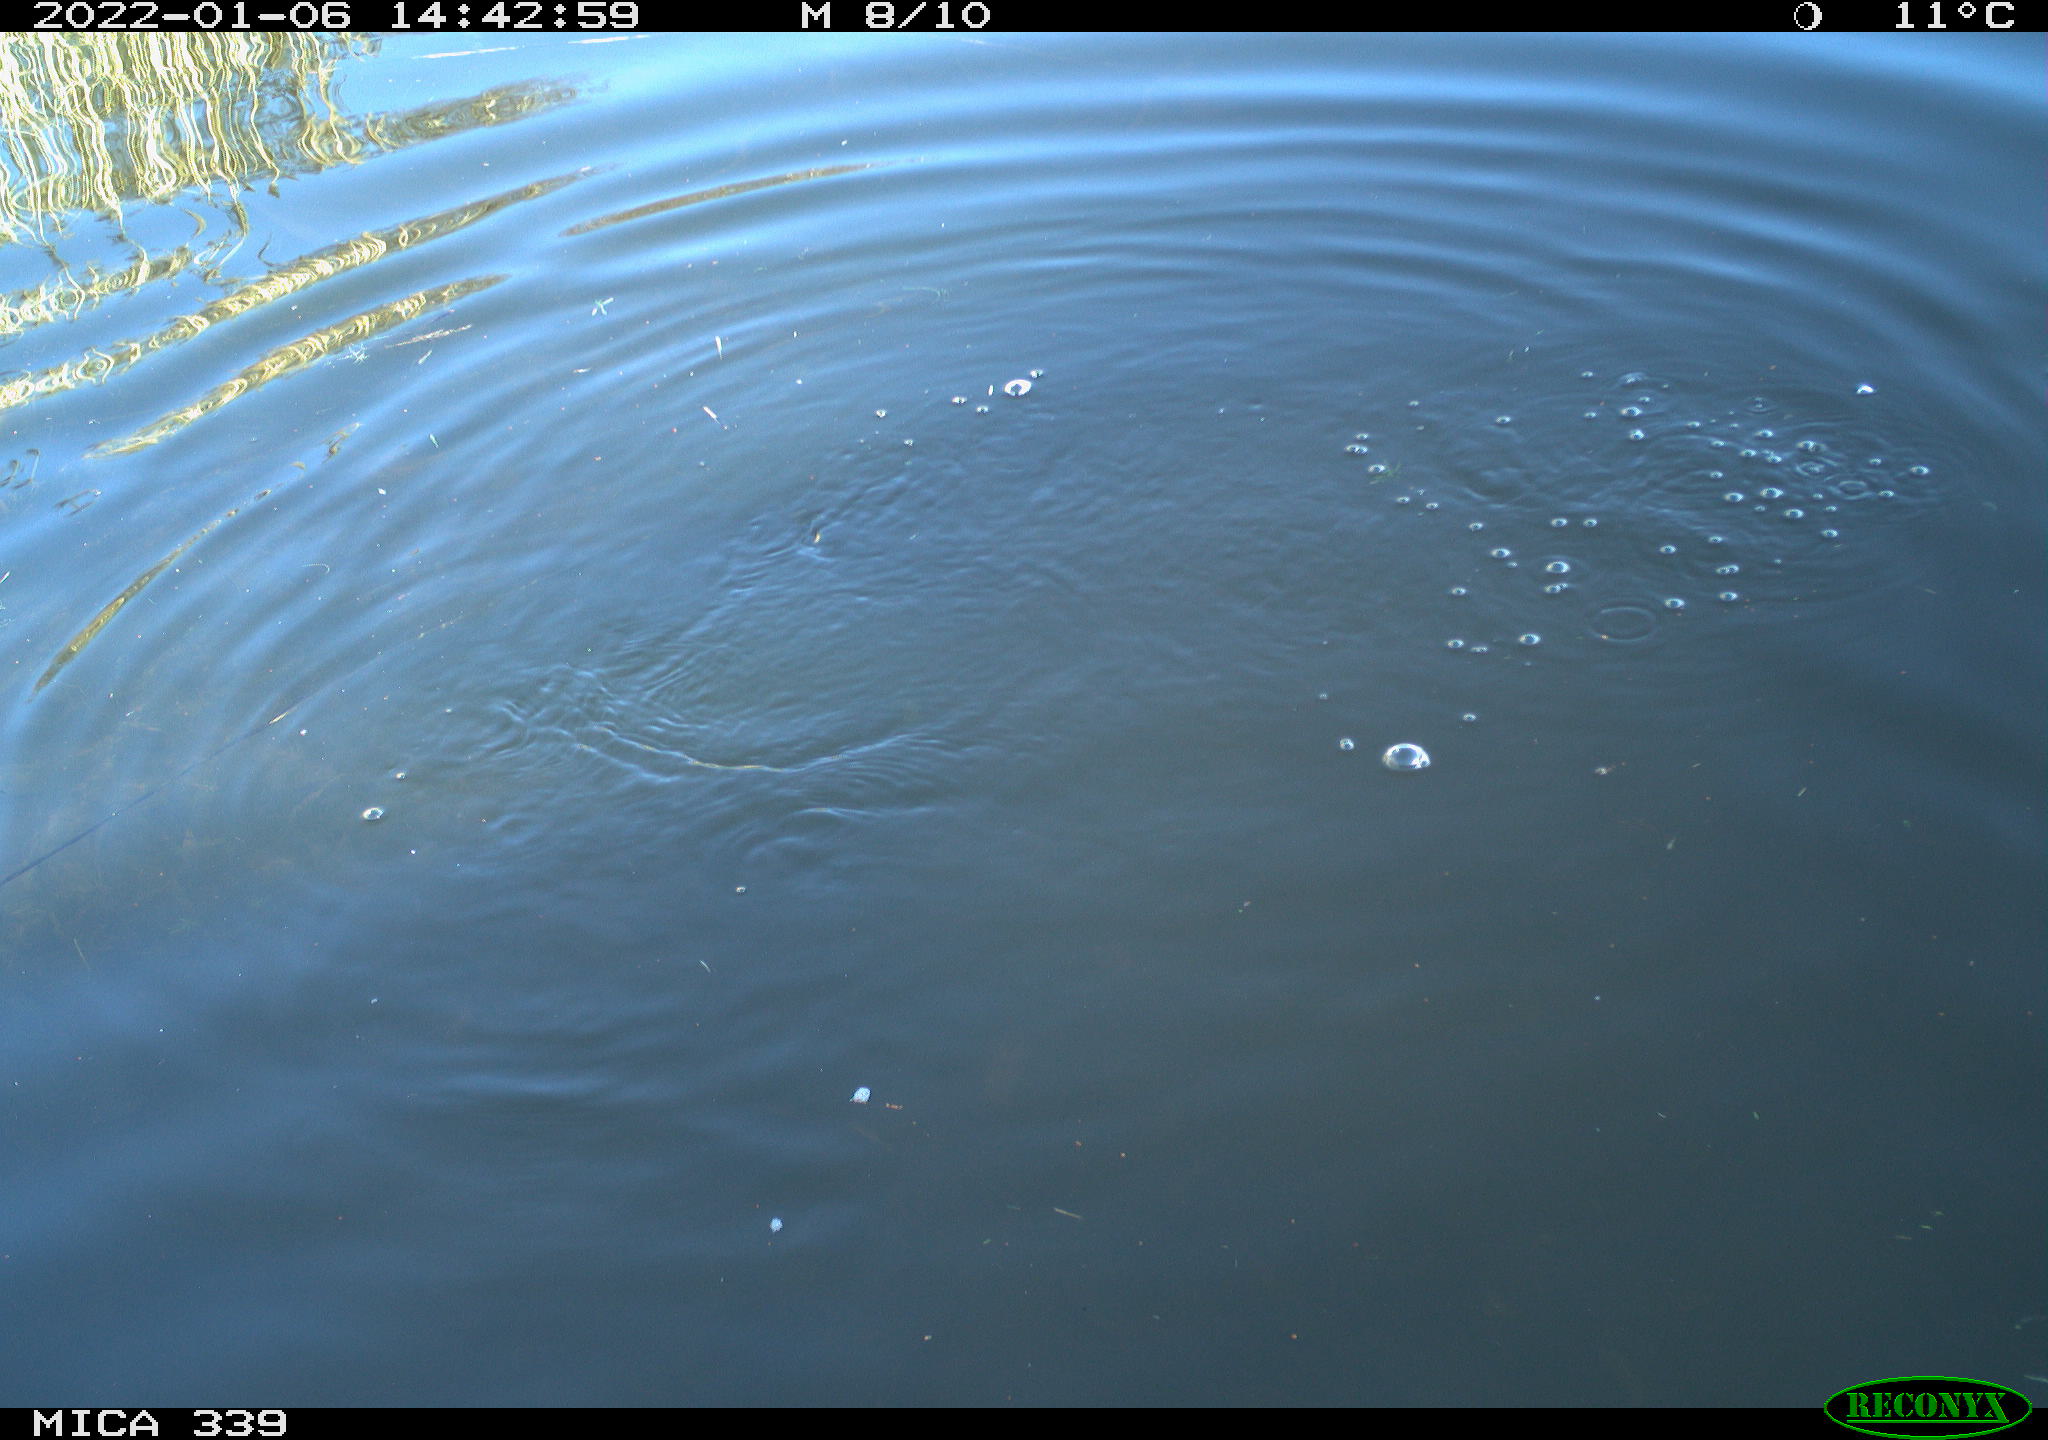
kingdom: Animalia
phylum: Chordata
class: Aves
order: Suliformes
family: Phalacrocoracidae
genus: Phalacrocorax
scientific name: Phalacrocorax carbo
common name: Great cormorant
